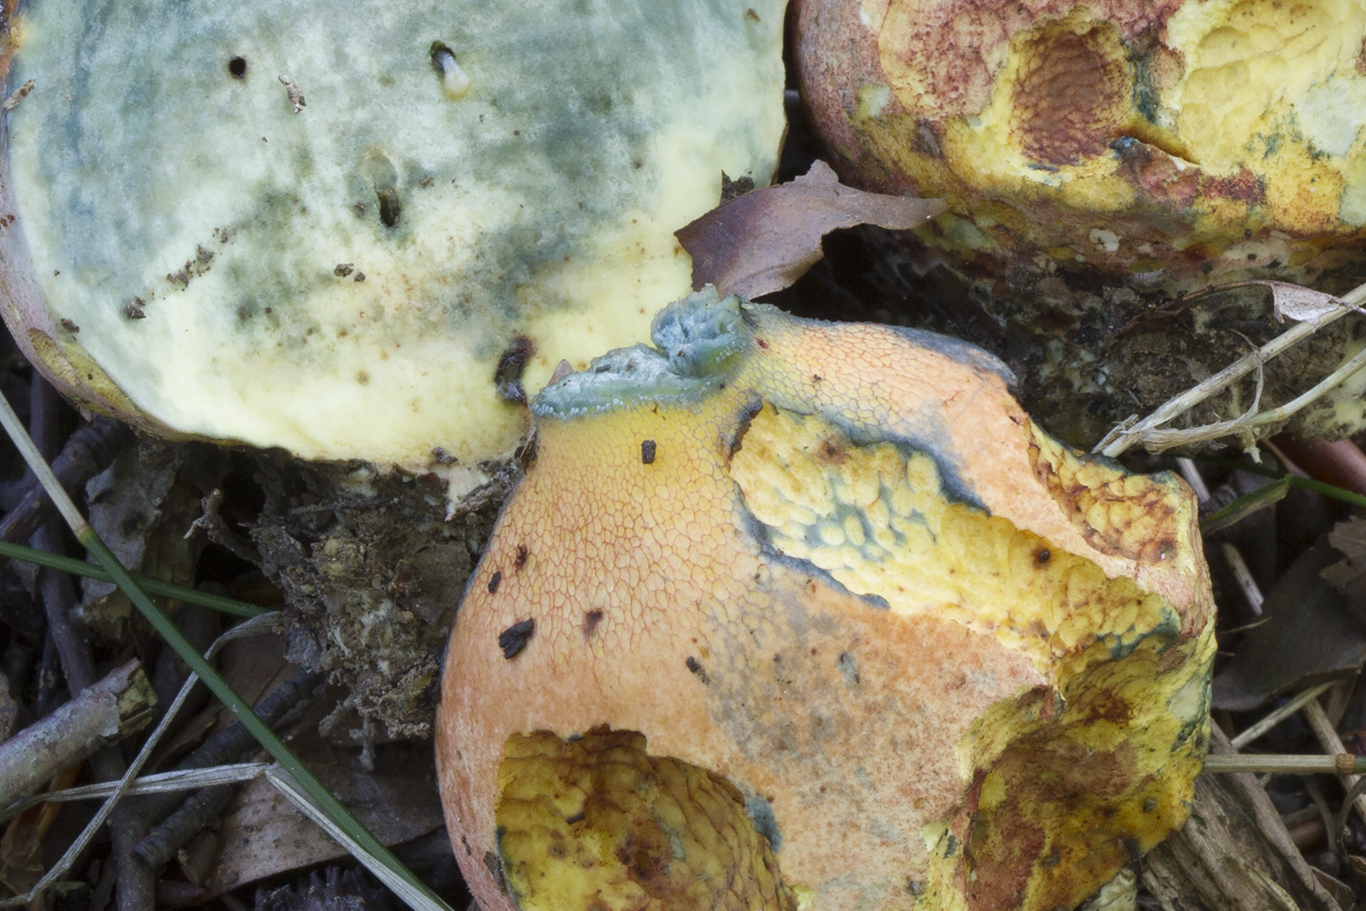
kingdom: Fungi
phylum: Basidiomycota
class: Agaricomycetes
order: Boletales
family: Boletaceae
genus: Rubroboletus
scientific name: Rubroboletus legaliae
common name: djævle-rørhat
